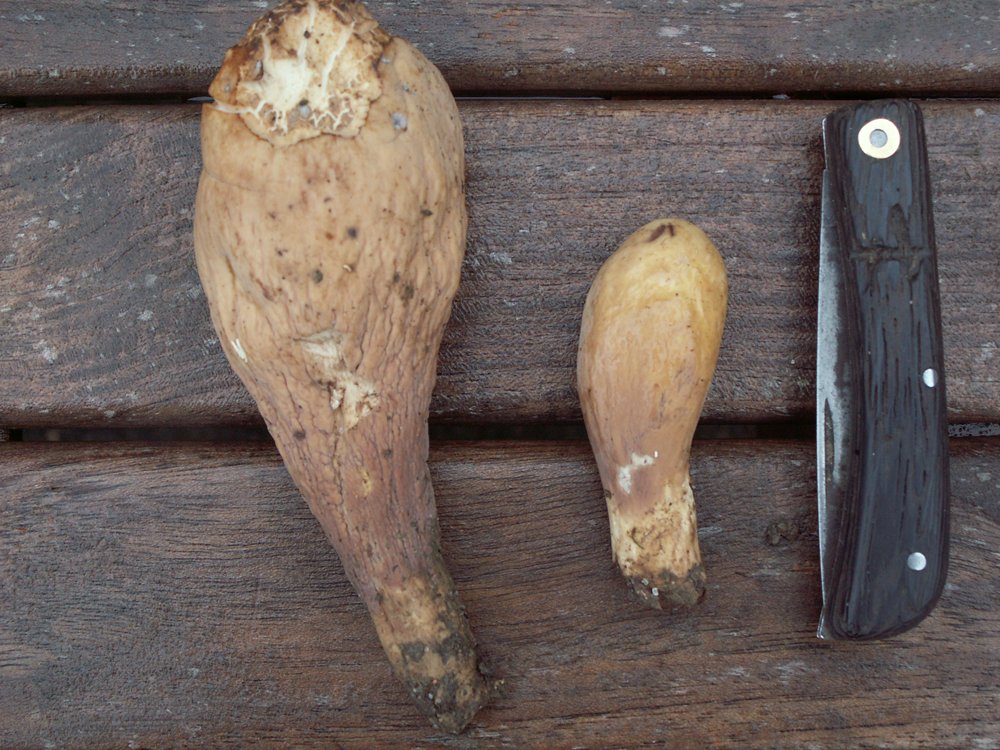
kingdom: Fungi
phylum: Basidiomycota
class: Agaricomycetes
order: Gomphales
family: Clavariadelphaceae
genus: Clavariadelphus
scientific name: Clavariadelphus pistillaris
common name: herkules-kæmpekølle
